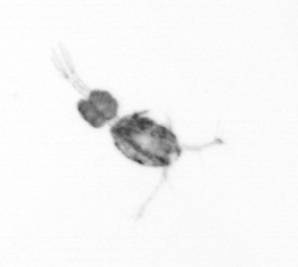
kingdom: Animalia
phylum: Arthropoda
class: Copepoda
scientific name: Copepoda
